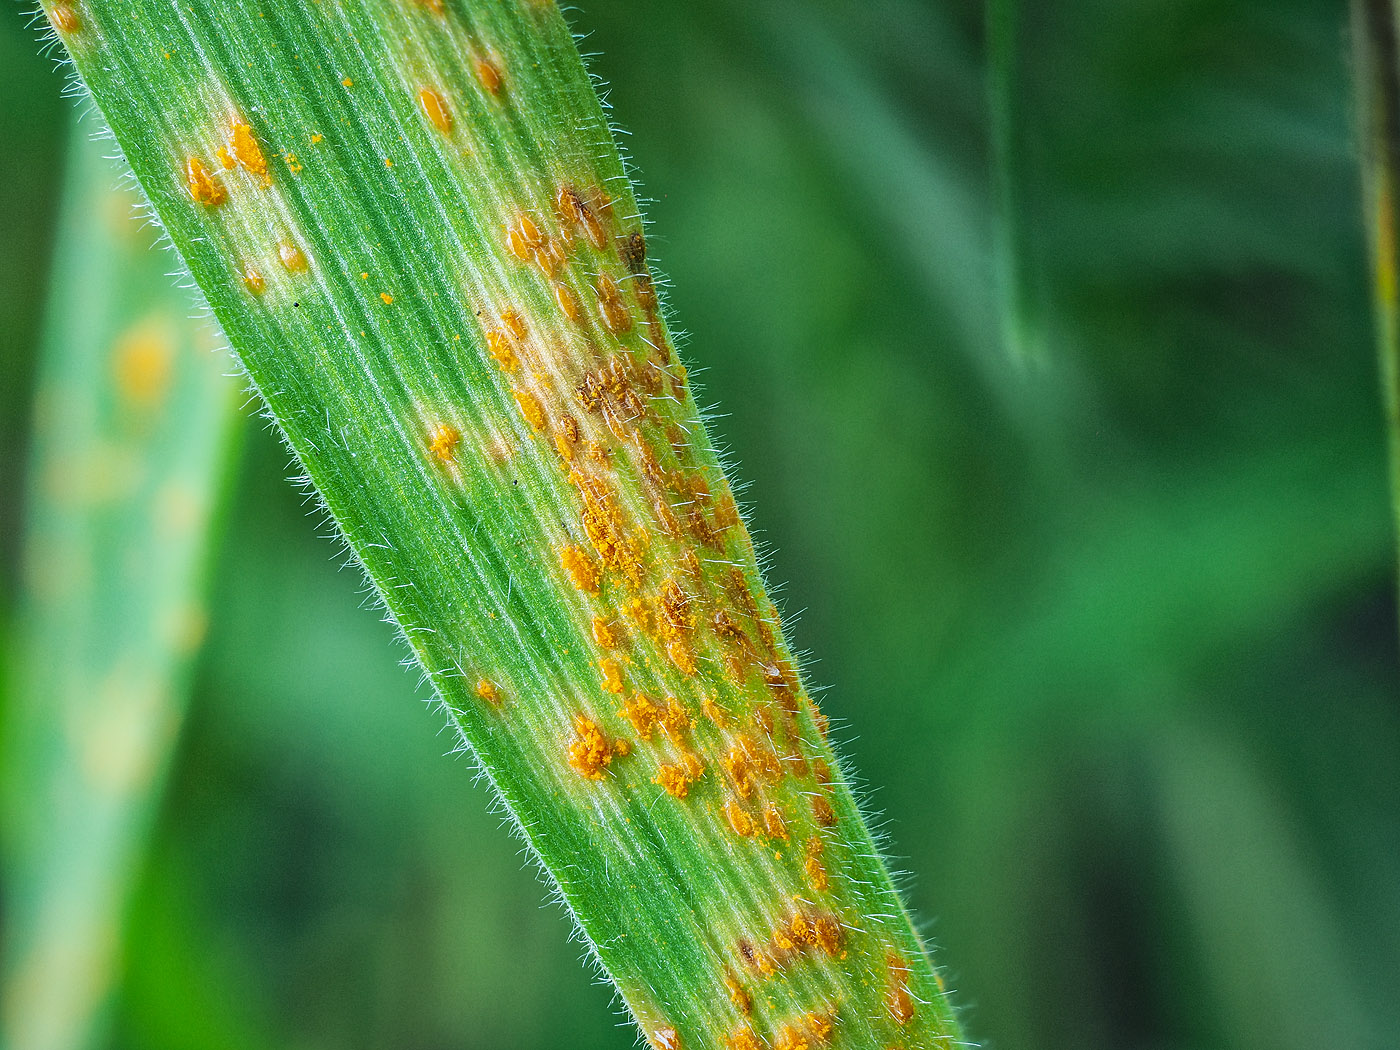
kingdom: Fungi
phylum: Basidiomycota
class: Pucciniomycetes
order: Pucciniales
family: Pucciniaceae
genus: Puccinia
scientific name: Puccinia striiformis
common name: stribe-tvecellerust
